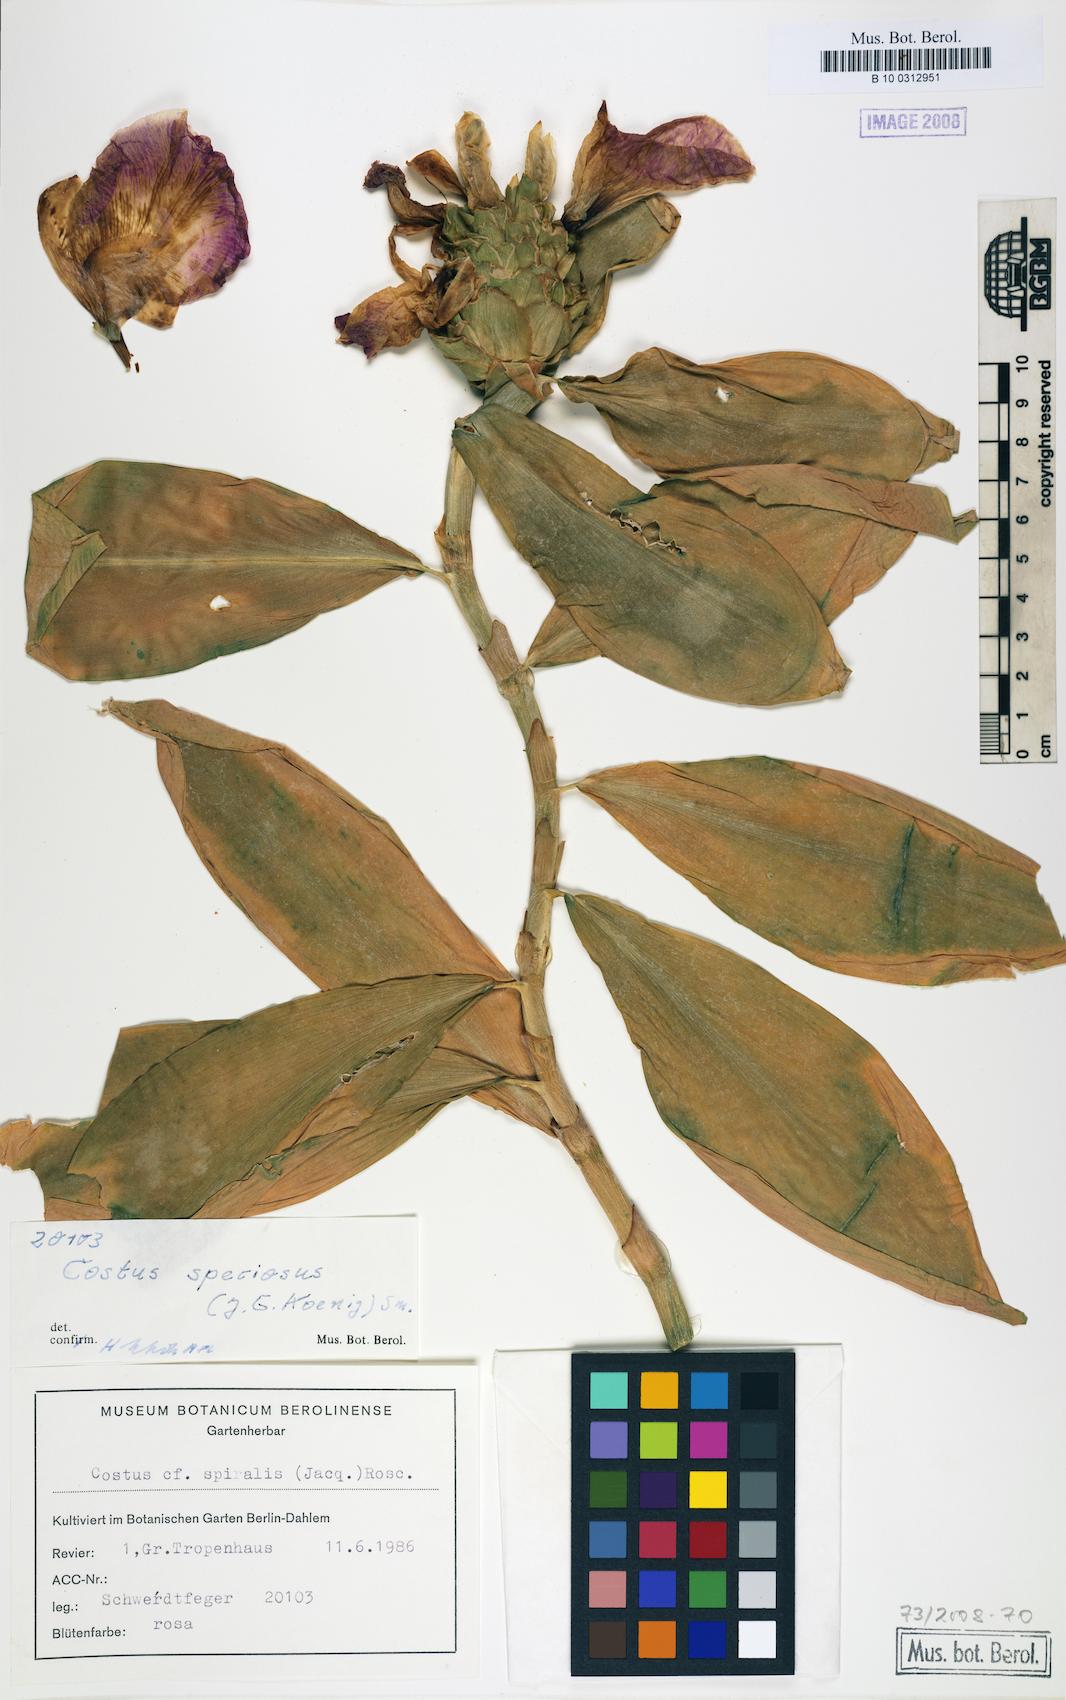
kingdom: Plantae
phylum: Tracheophyta
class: Liliopsida
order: Zingiberales
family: Costaceae
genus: Hellenia
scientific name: Hellenia speciosa
